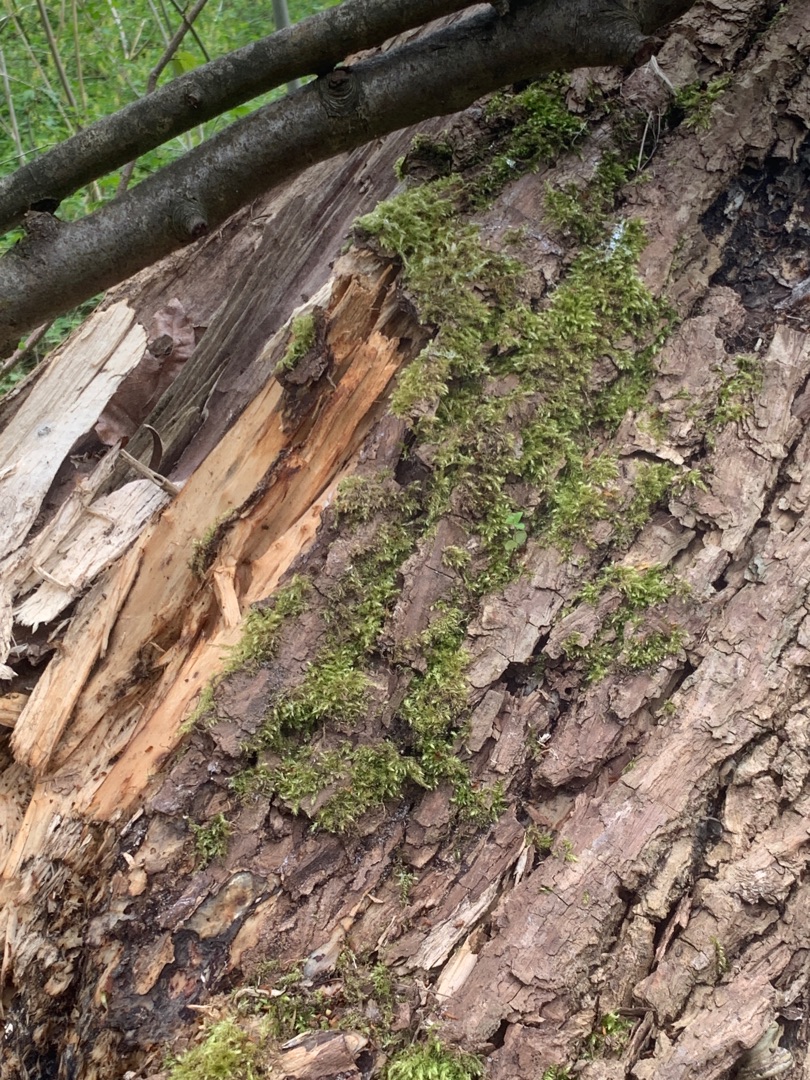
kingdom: Plantae
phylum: Bryophyta
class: Bryopsida
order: Hypnales
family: Brachytheciaceae
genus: Brachythecium
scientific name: Brachythecium rutabulum
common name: Almindelig kortkapsel
